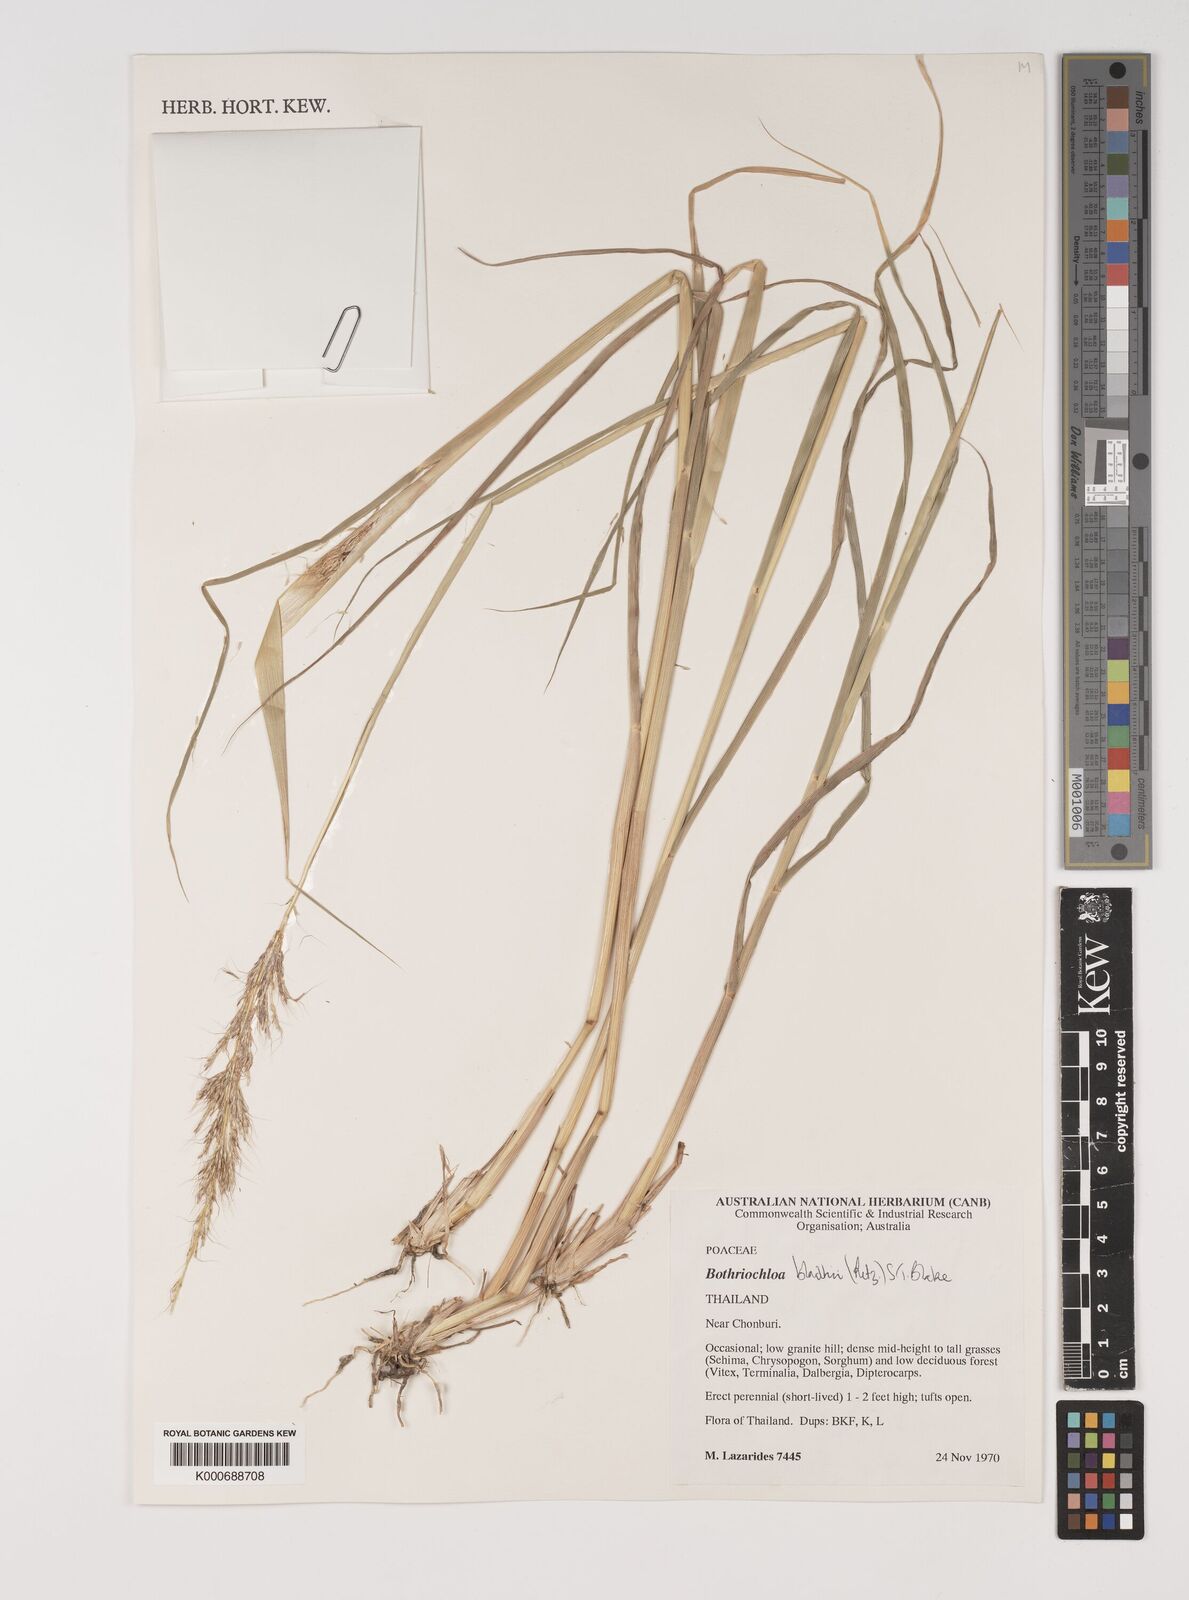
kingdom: Plantae
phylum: Tracheophyta
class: Liliopsida
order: Poales
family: Poaceae
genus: Bothriochloa
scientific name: Bothriochloa bladhii
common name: Caucasian bluestem
